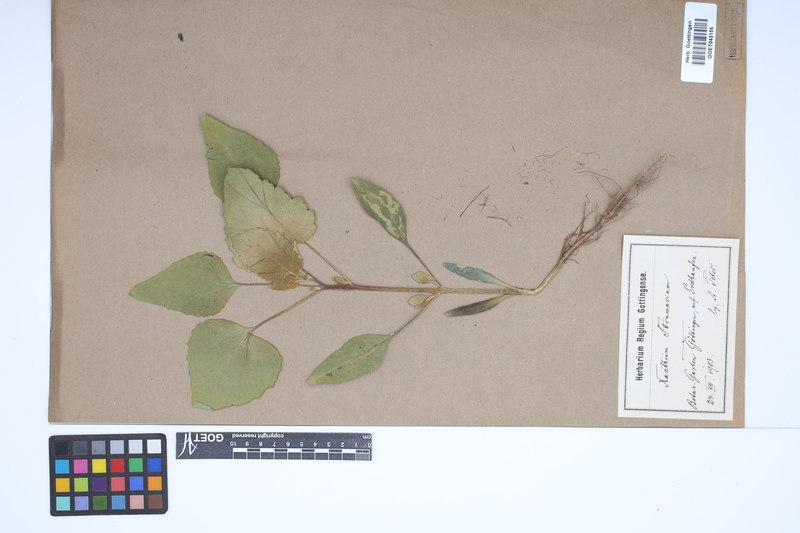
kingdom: Plantae
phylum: Tracheophyta
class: Magnoliopsida
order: Asterales
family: Asteraceae
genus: Xanthium
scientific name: Xanthium strumarium
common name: Rough cocklebur
